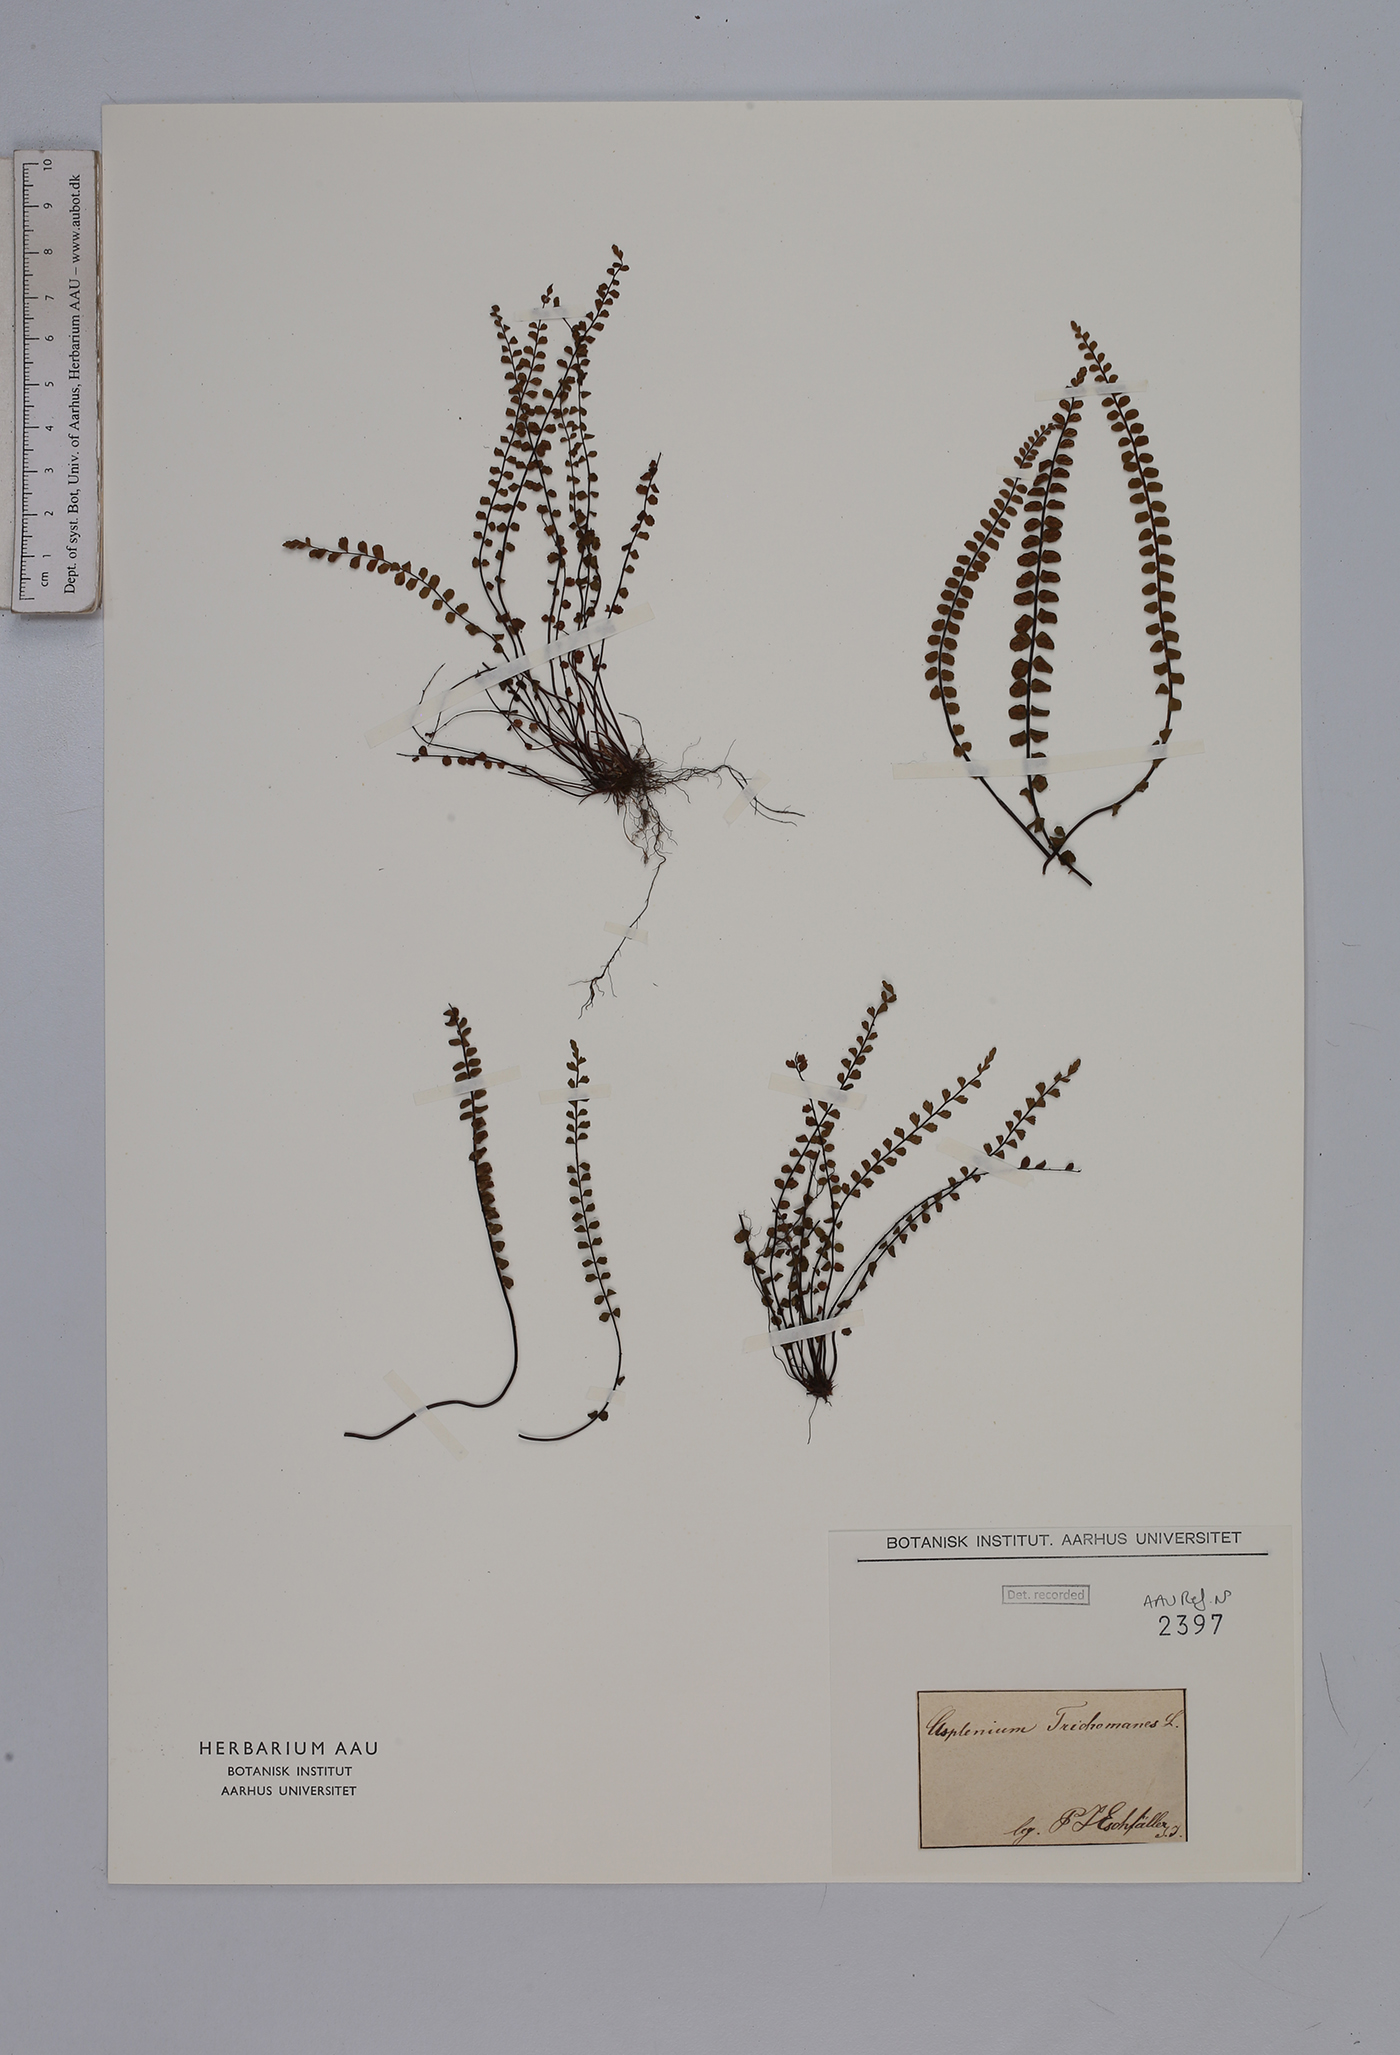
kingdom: Plantae
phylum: Tracheophyta
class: Polypodiopsida
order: Polypodiales
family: Aspleniaceae
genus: Asplenium
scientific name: Asplenium trichomanes
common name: Maidenhair spleenwort
